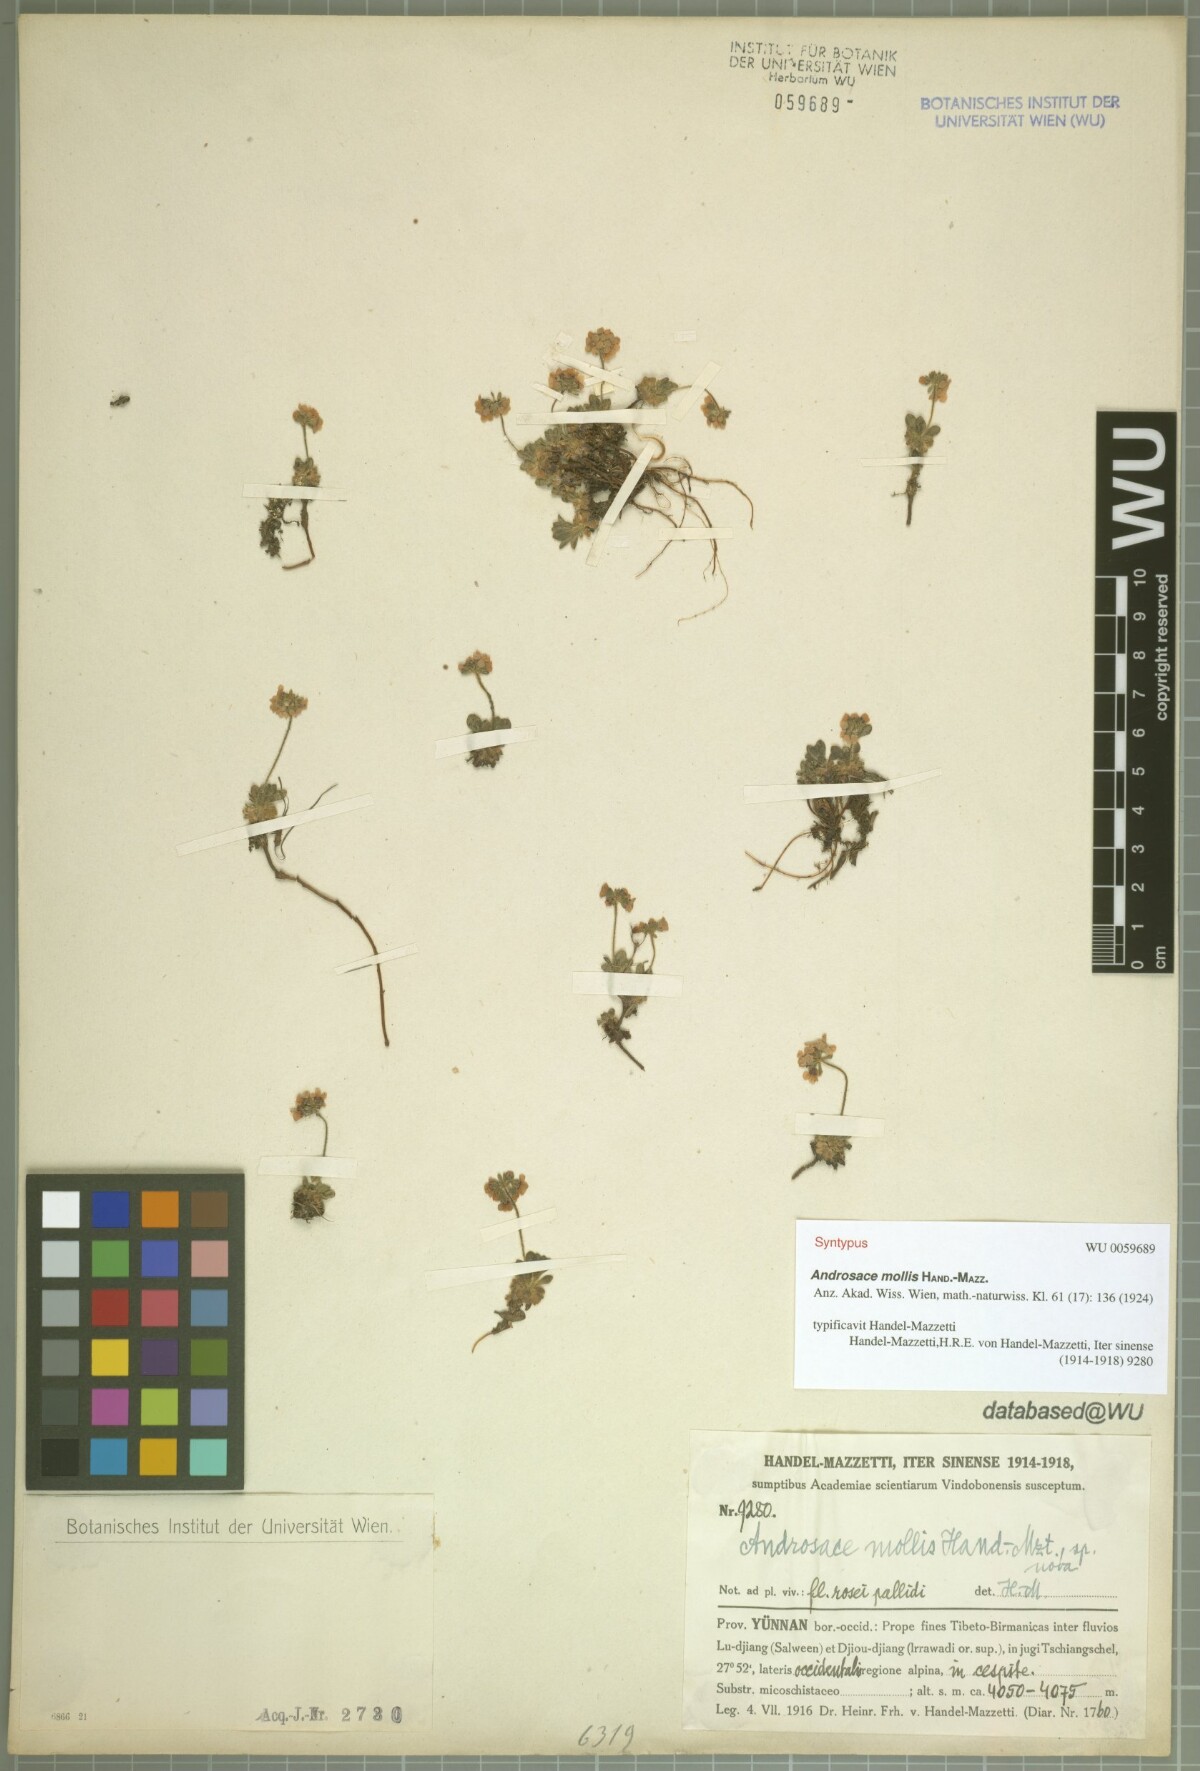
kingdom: Plantae
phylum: Tracheophyta
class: Magnoliopsida
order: Ericales
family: Primulaceae
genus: Androsace
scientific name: Androsace mollis
